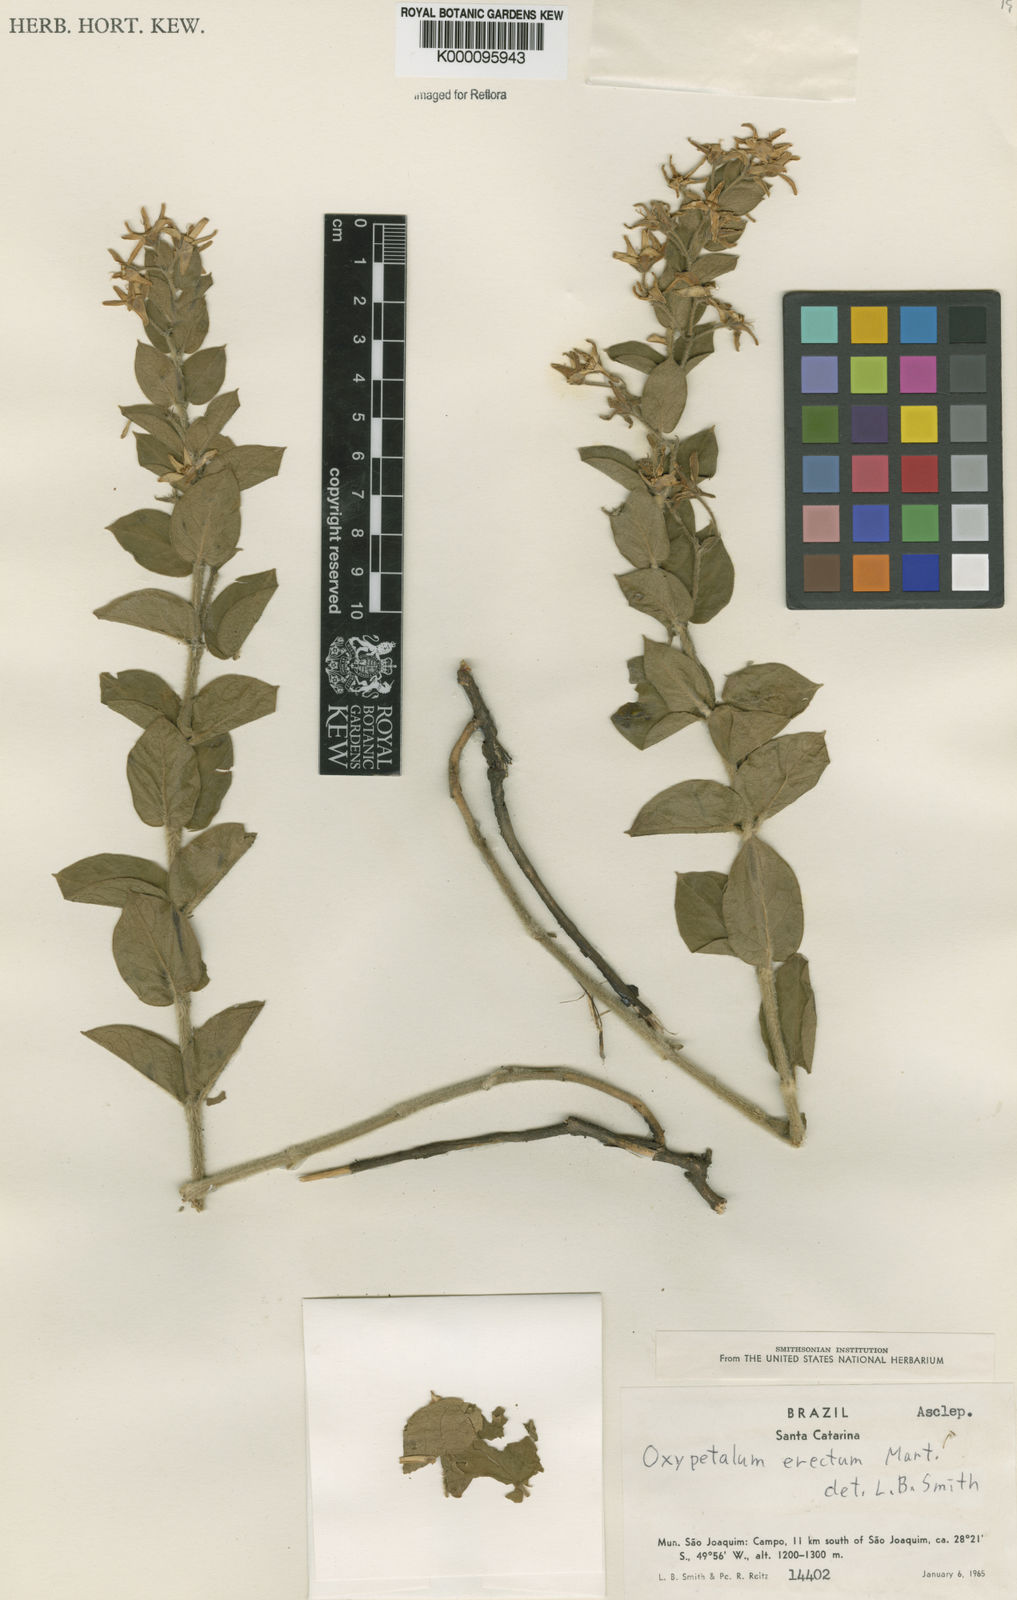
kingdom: Plantae
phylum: Tracheophyta
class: Magnoliopsida
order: Gentianales
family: Apocynaceae
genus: Oxypetalum
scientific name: Oxypetalum erectum
